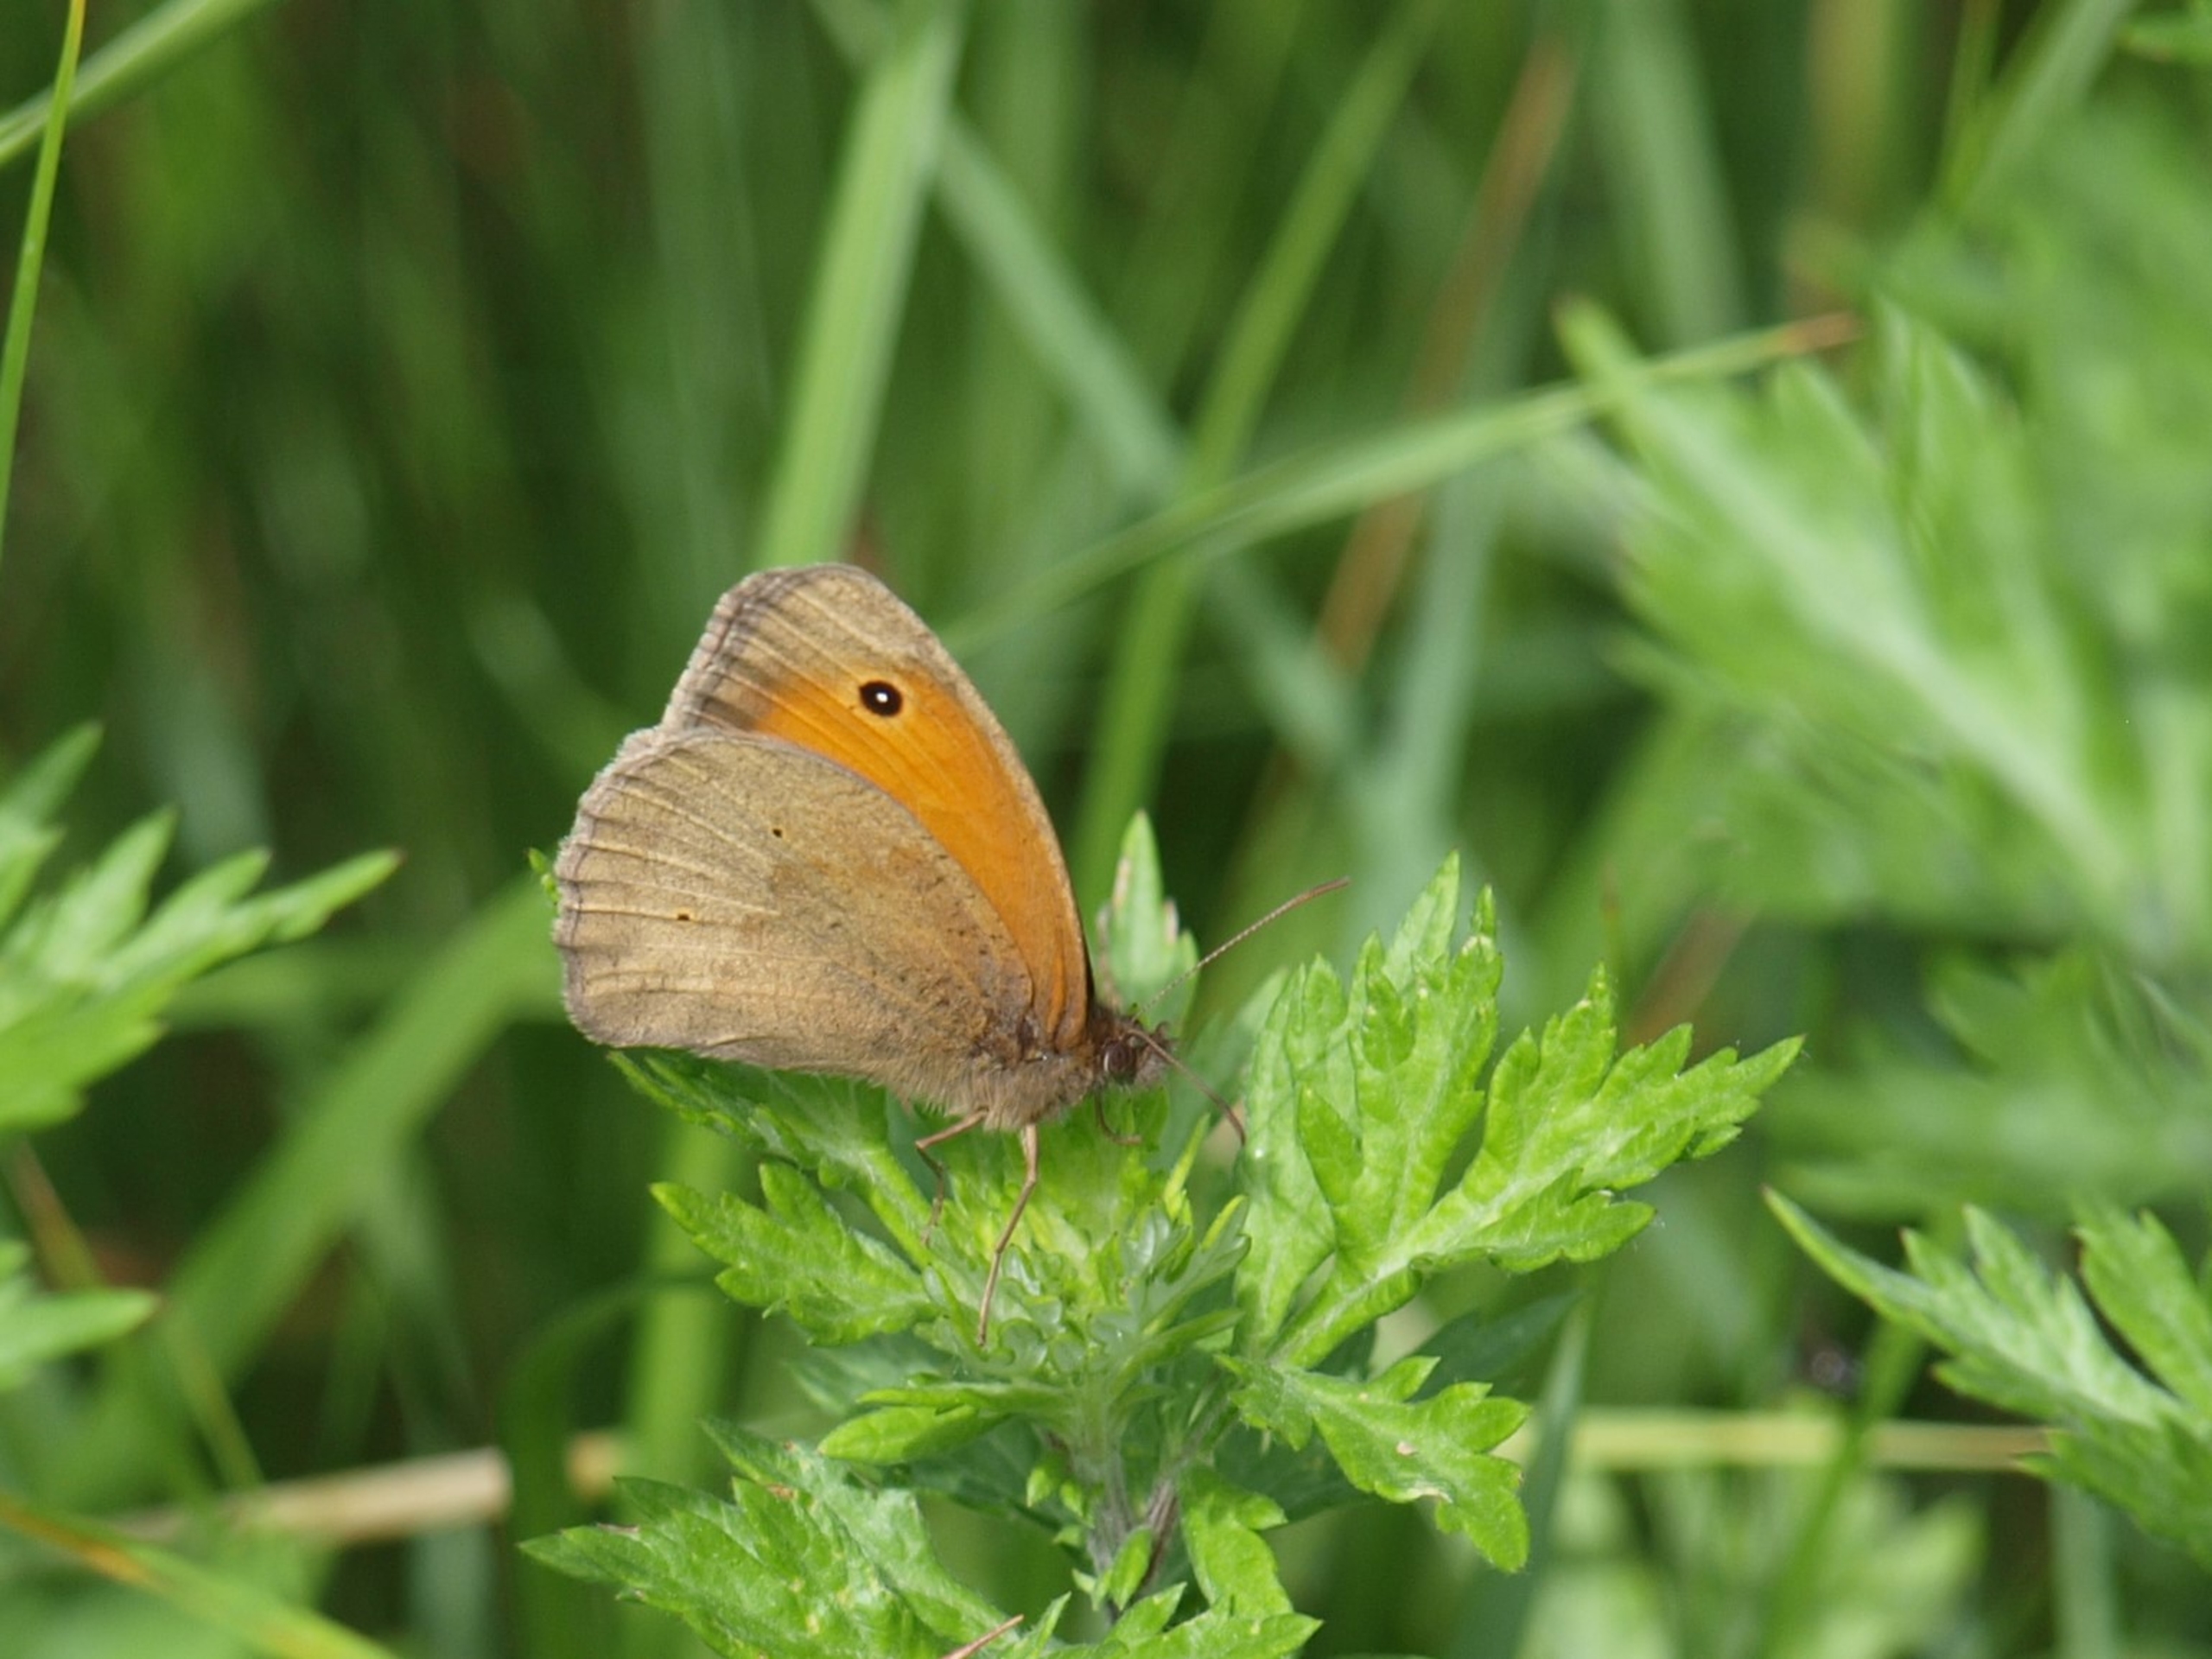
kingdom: Animalia
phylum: Arthropoda
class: Insecta
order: Lepidoptera
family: Nymphalidae
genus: Maniola
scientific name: Maniola jurtina
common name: Græsrandøje
